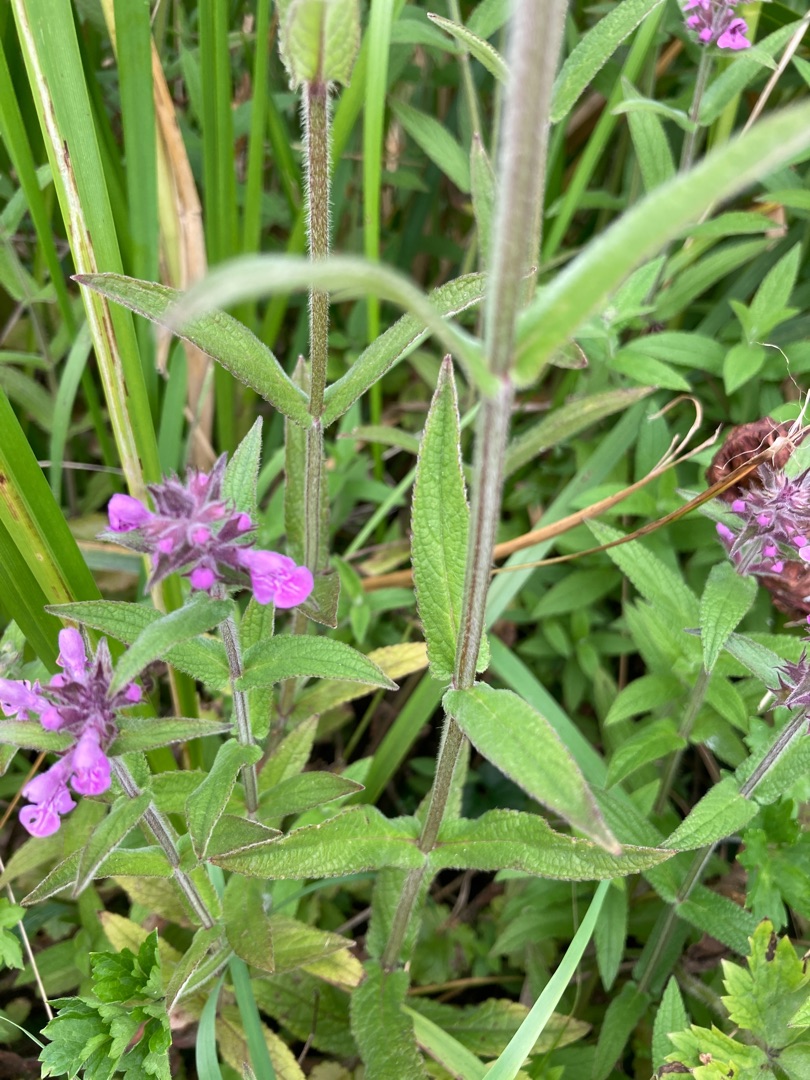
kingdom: Plantae
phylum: Tracheophyta
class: Magnoliopsida
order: Lamiales
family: Lamiaceae
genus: Stachys
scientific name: Stachys palustris
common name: Kær-galtetand
